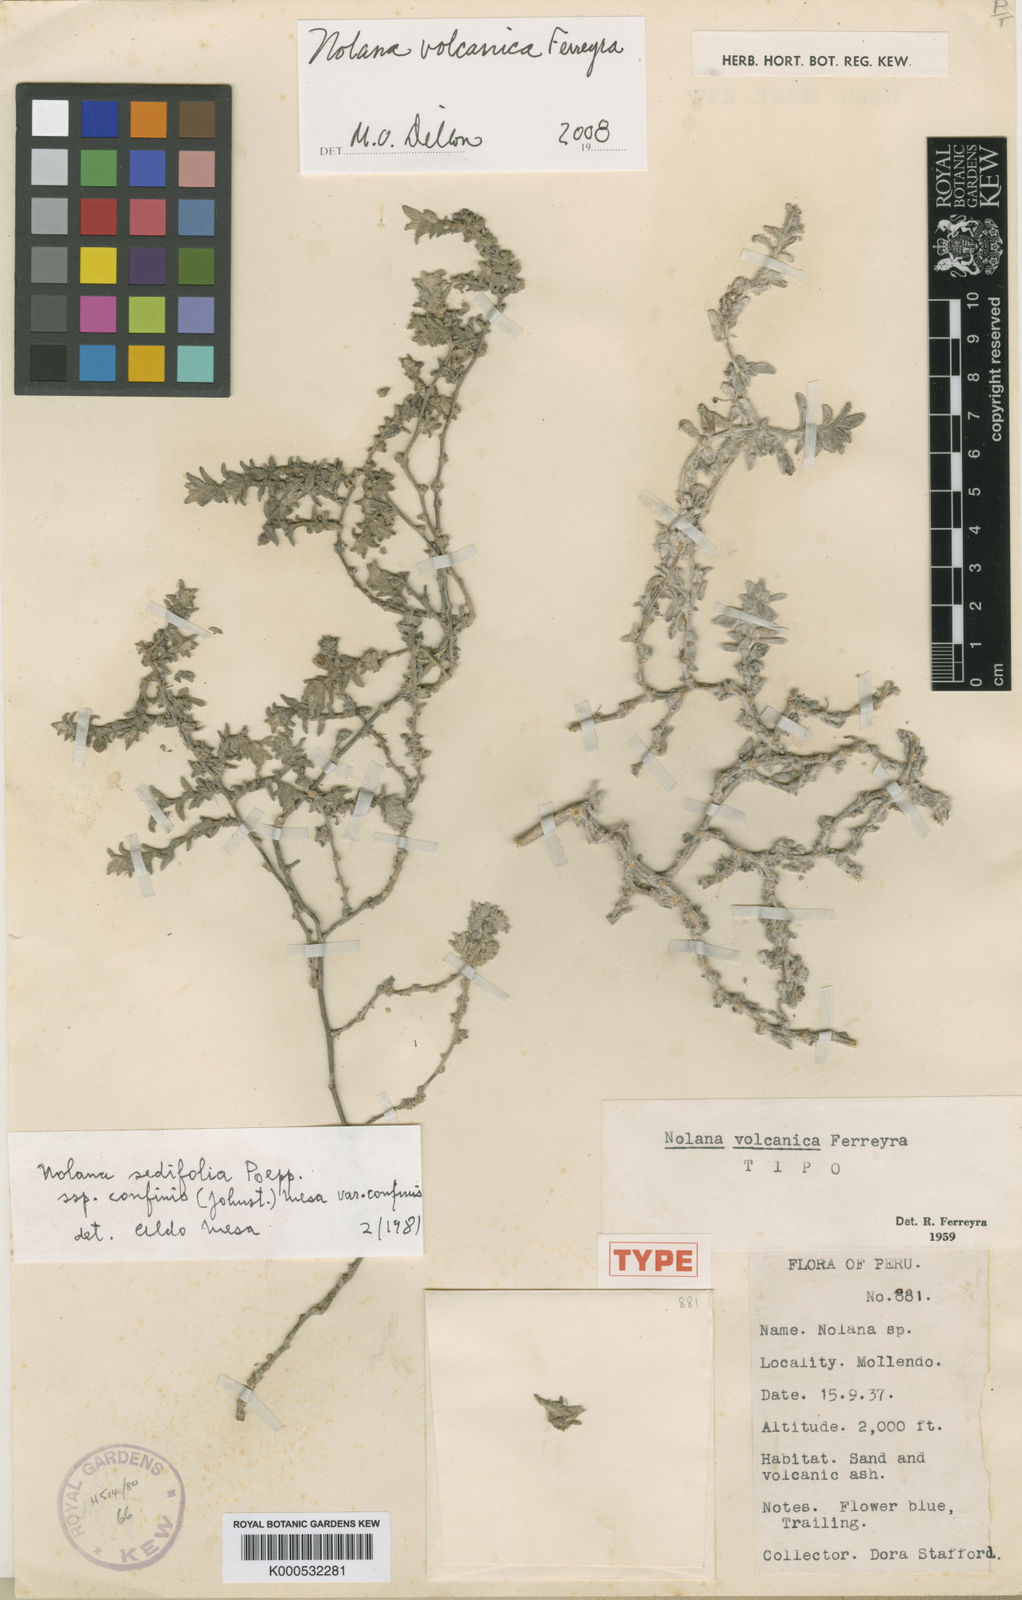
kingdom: Plantae
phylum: Tracheophyta
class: Magnoliopsida
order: Solanales
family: Solanaceae
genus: Nolana
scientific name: Nolana lycioides
